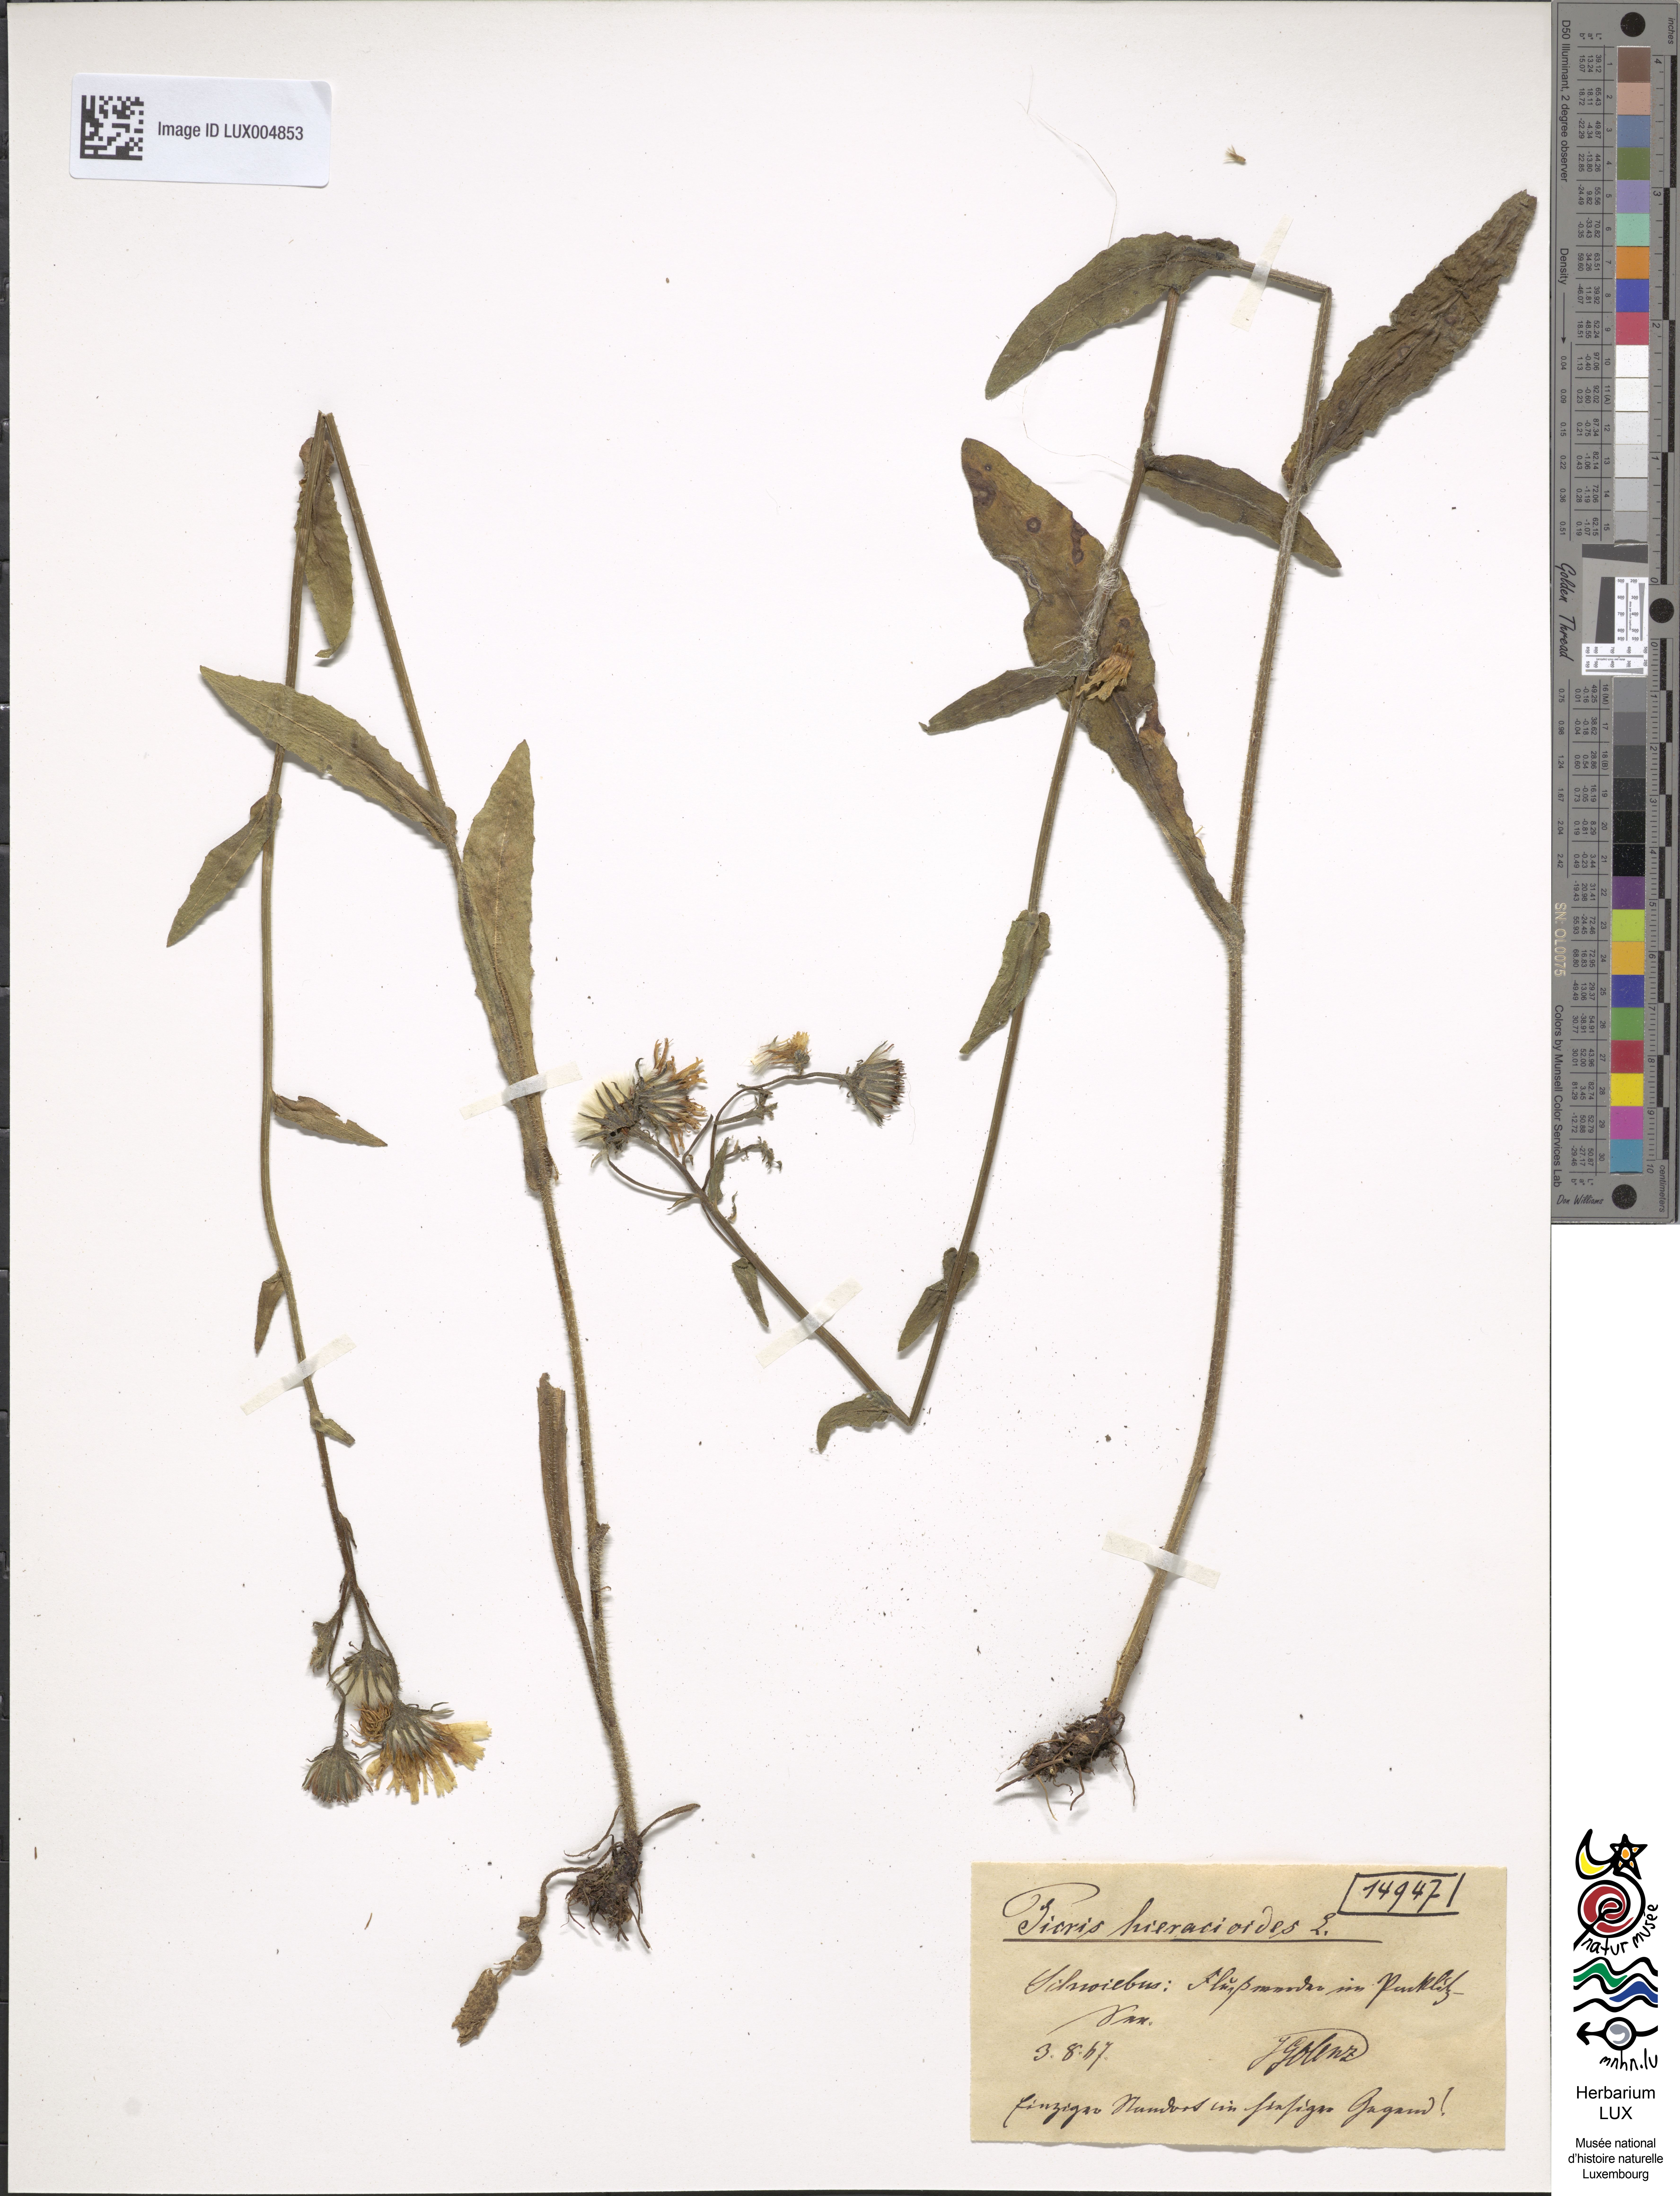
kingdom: Plantae
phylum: Tracheophyta
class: Magnoliopsida
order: Asterales
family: Asteraceae
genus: Picris
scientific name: Picris hieracioides
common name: Hawkweed oxtongue
